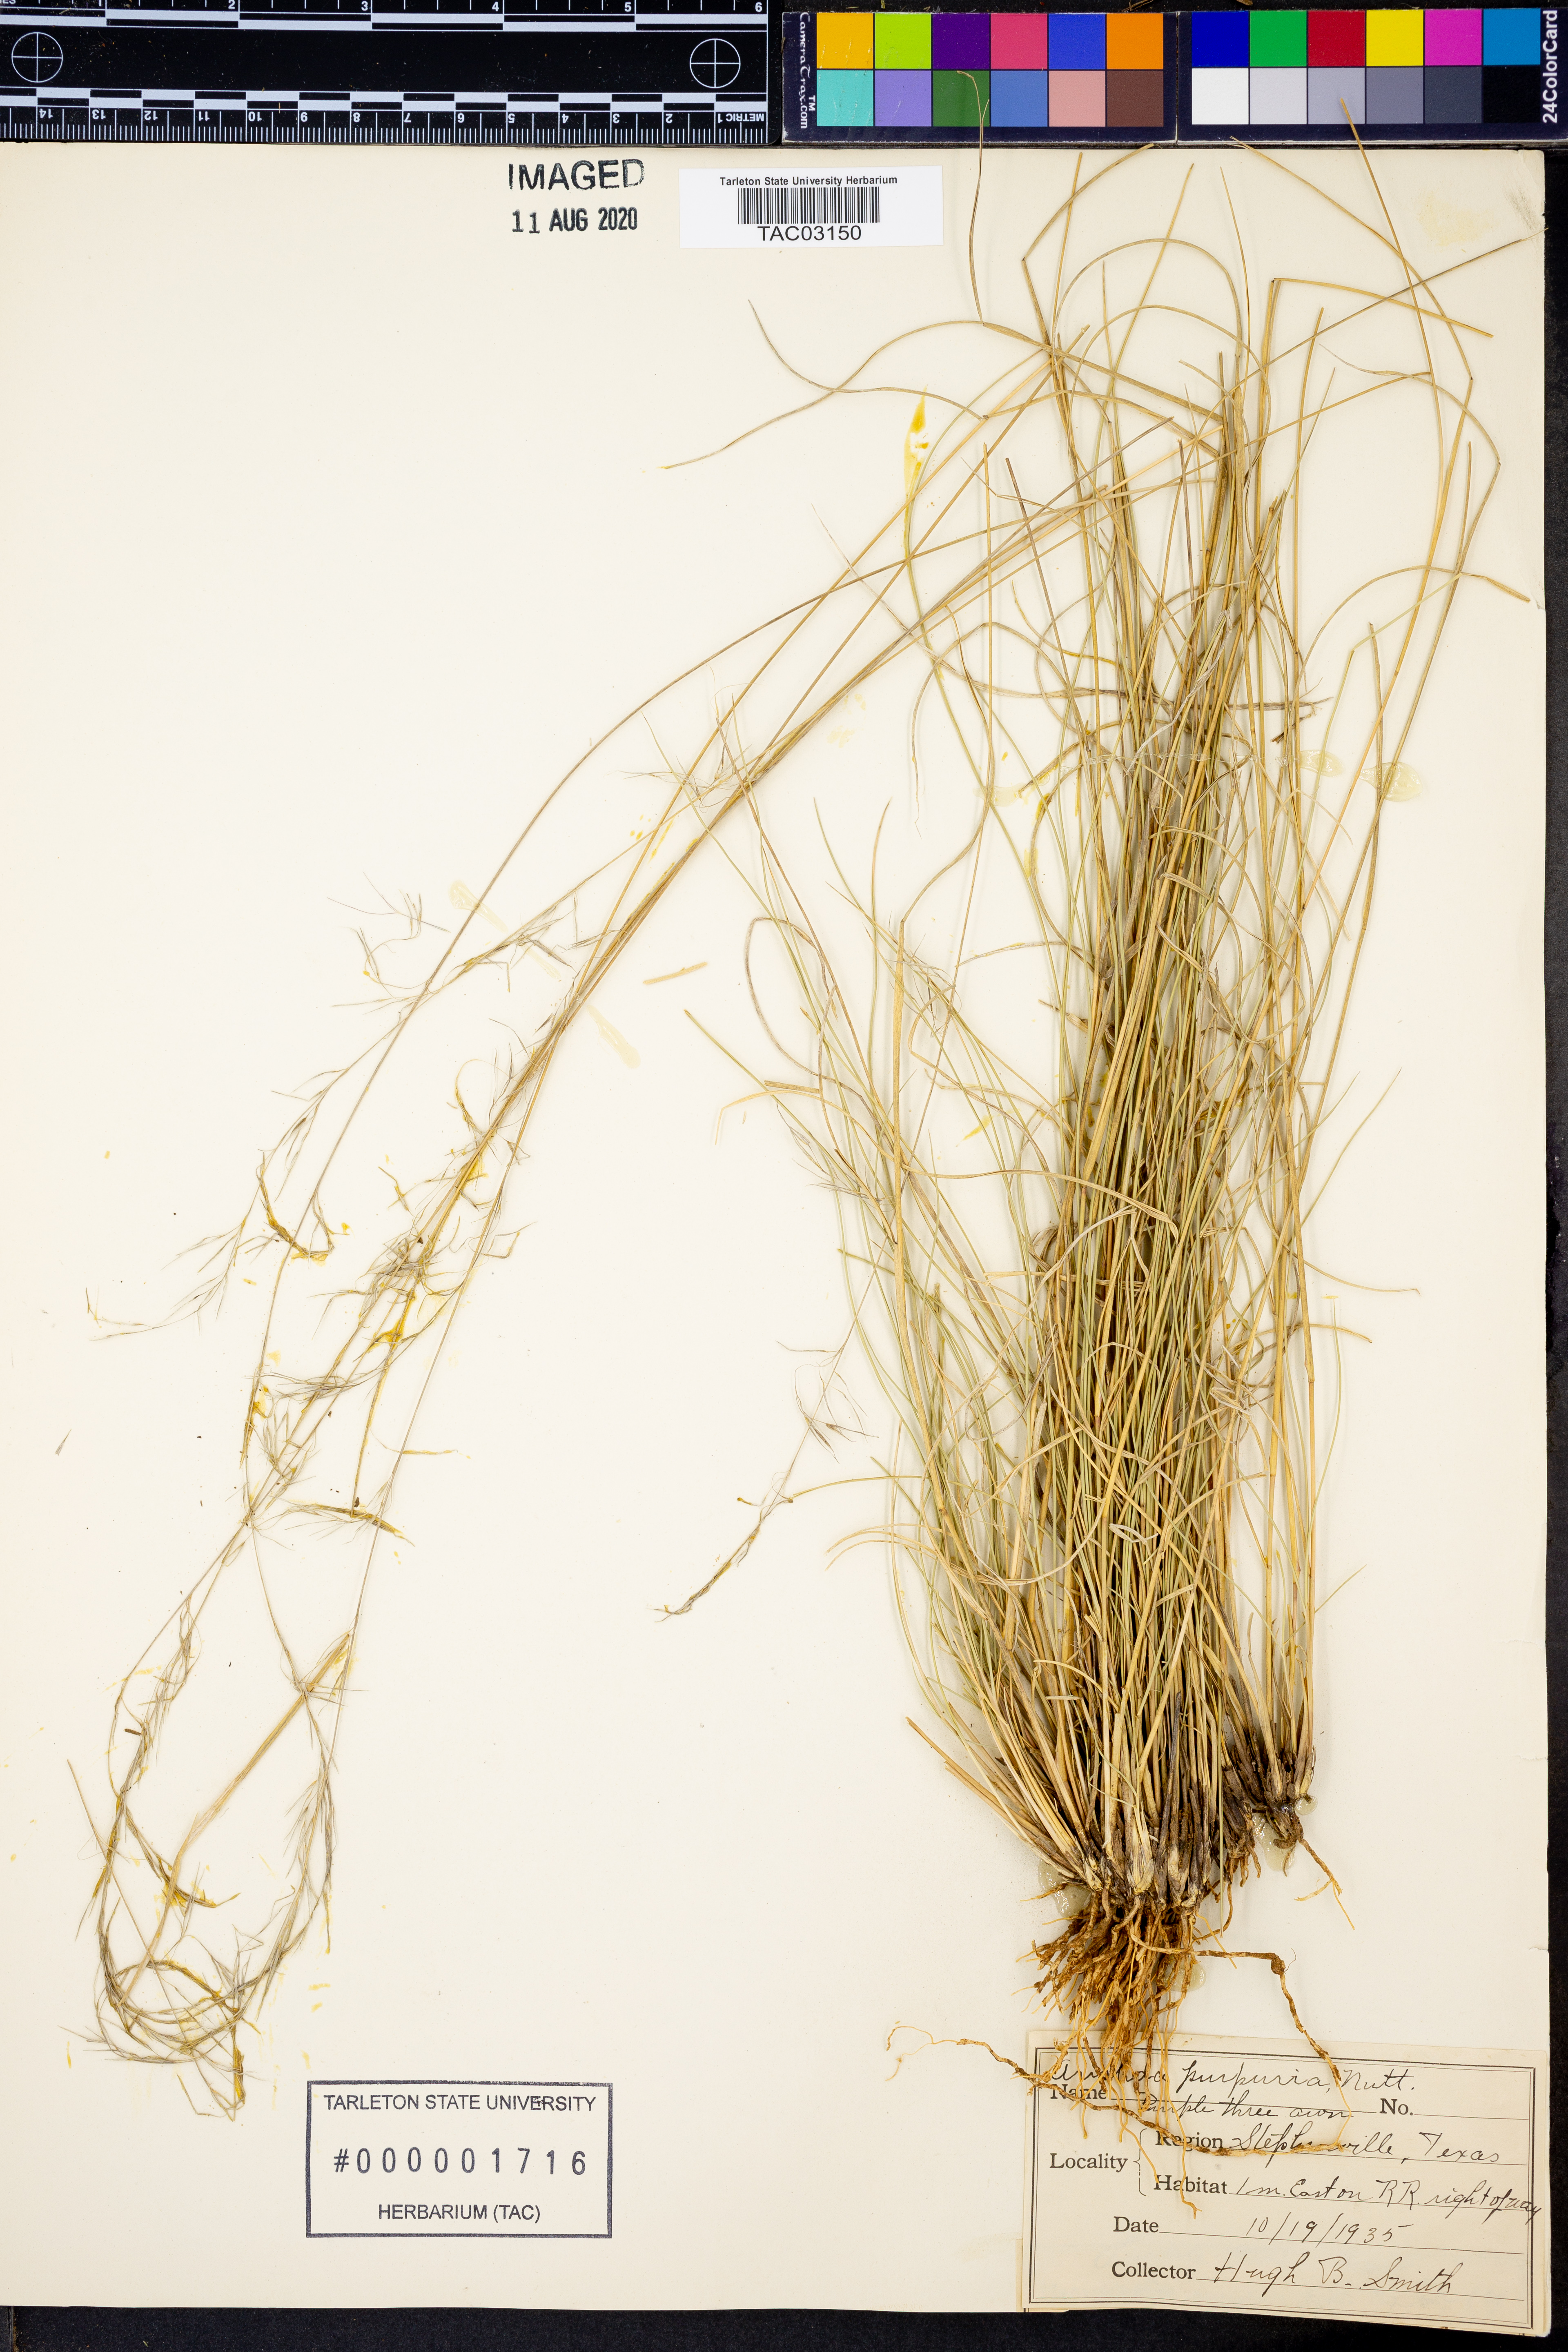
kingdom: Plantae
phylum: Tracheophyta
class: Liliopsida
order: Poales
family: Poaceae
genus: Aristida
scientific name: Aristida purpurea
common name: Purple threeawn
